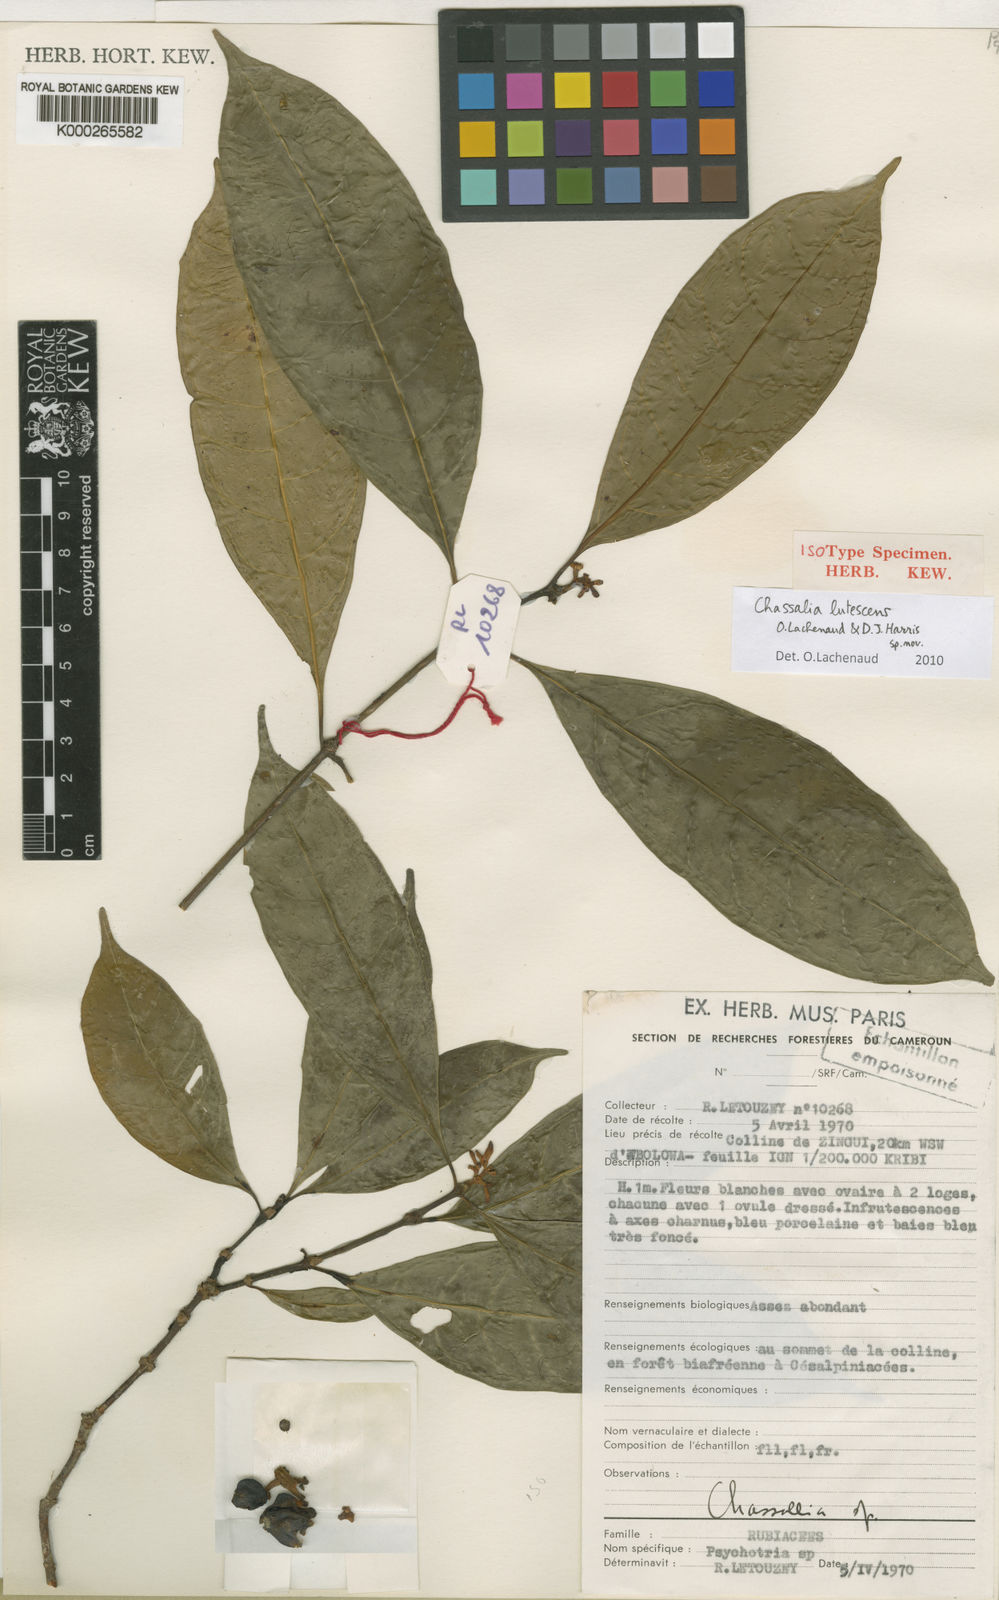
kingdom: Plantae
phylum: Tracheophyta
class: Magnoliopsida
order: Gentianales
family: Rubiaceae
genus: Chassalia
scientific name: Chassalia lutescens
